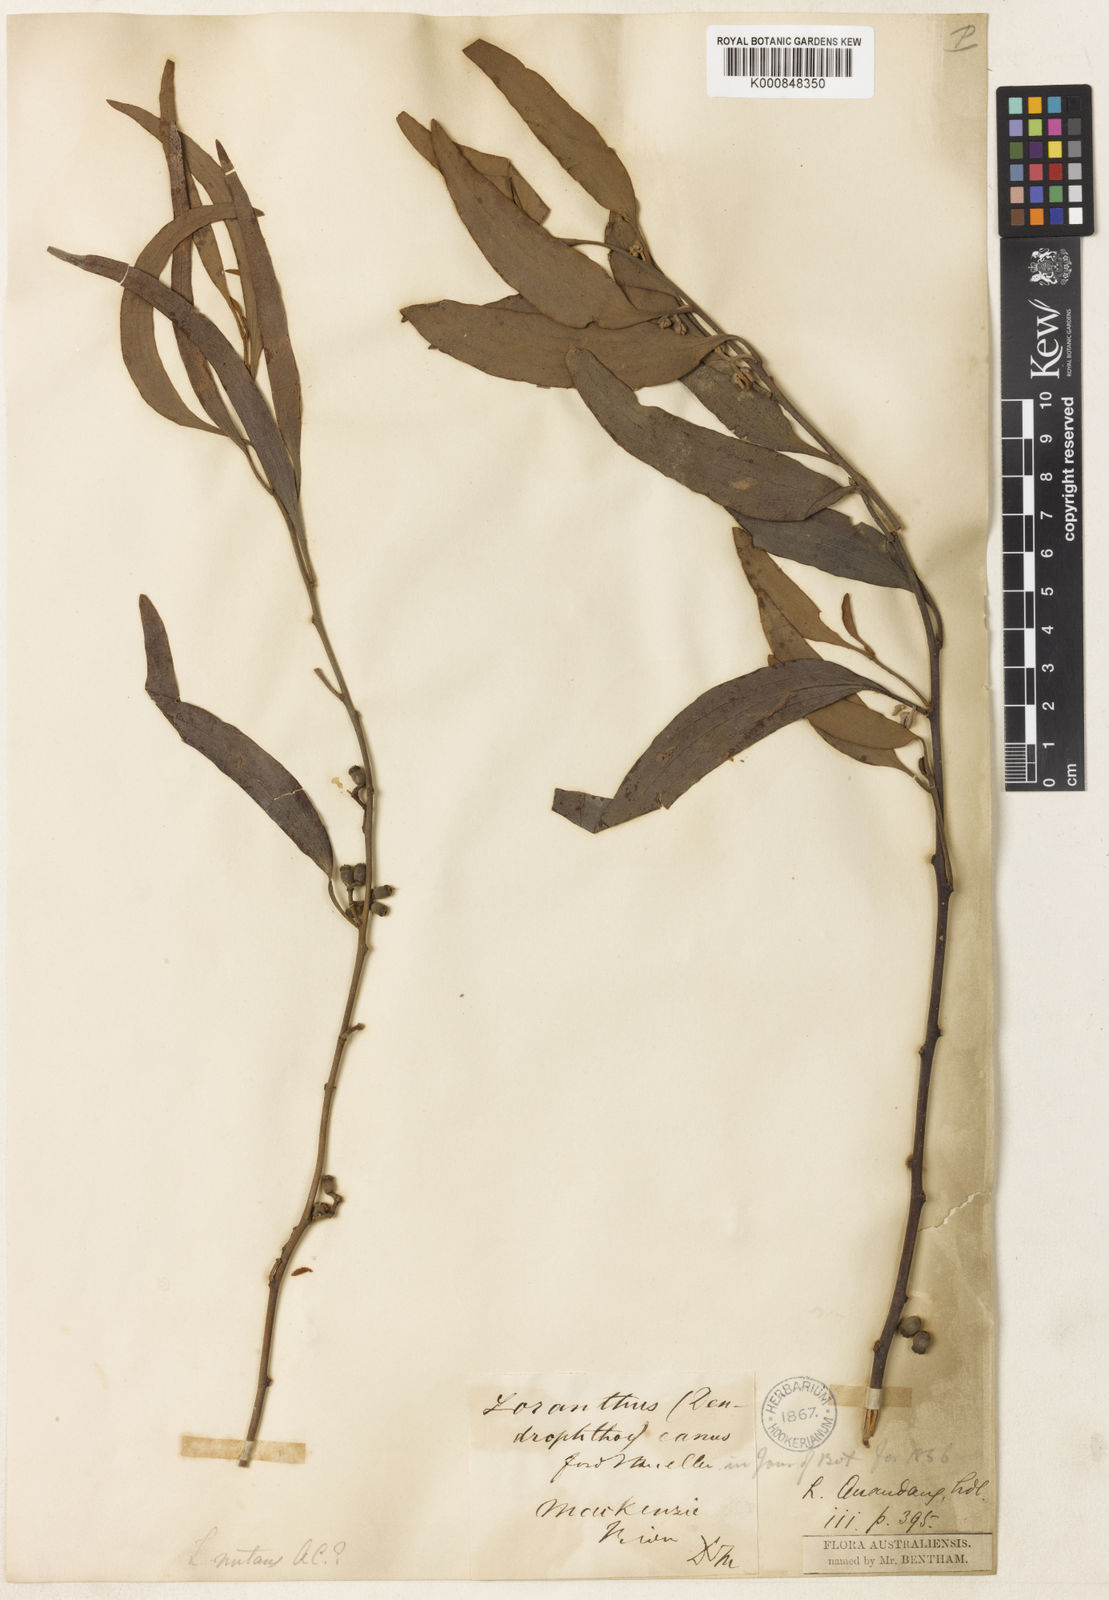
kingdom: Plantae
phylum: Tracheophyta
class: Magnoliopsida
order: Santalales
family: Loranthaceae
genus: Amyema
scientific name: Amyema quandang
